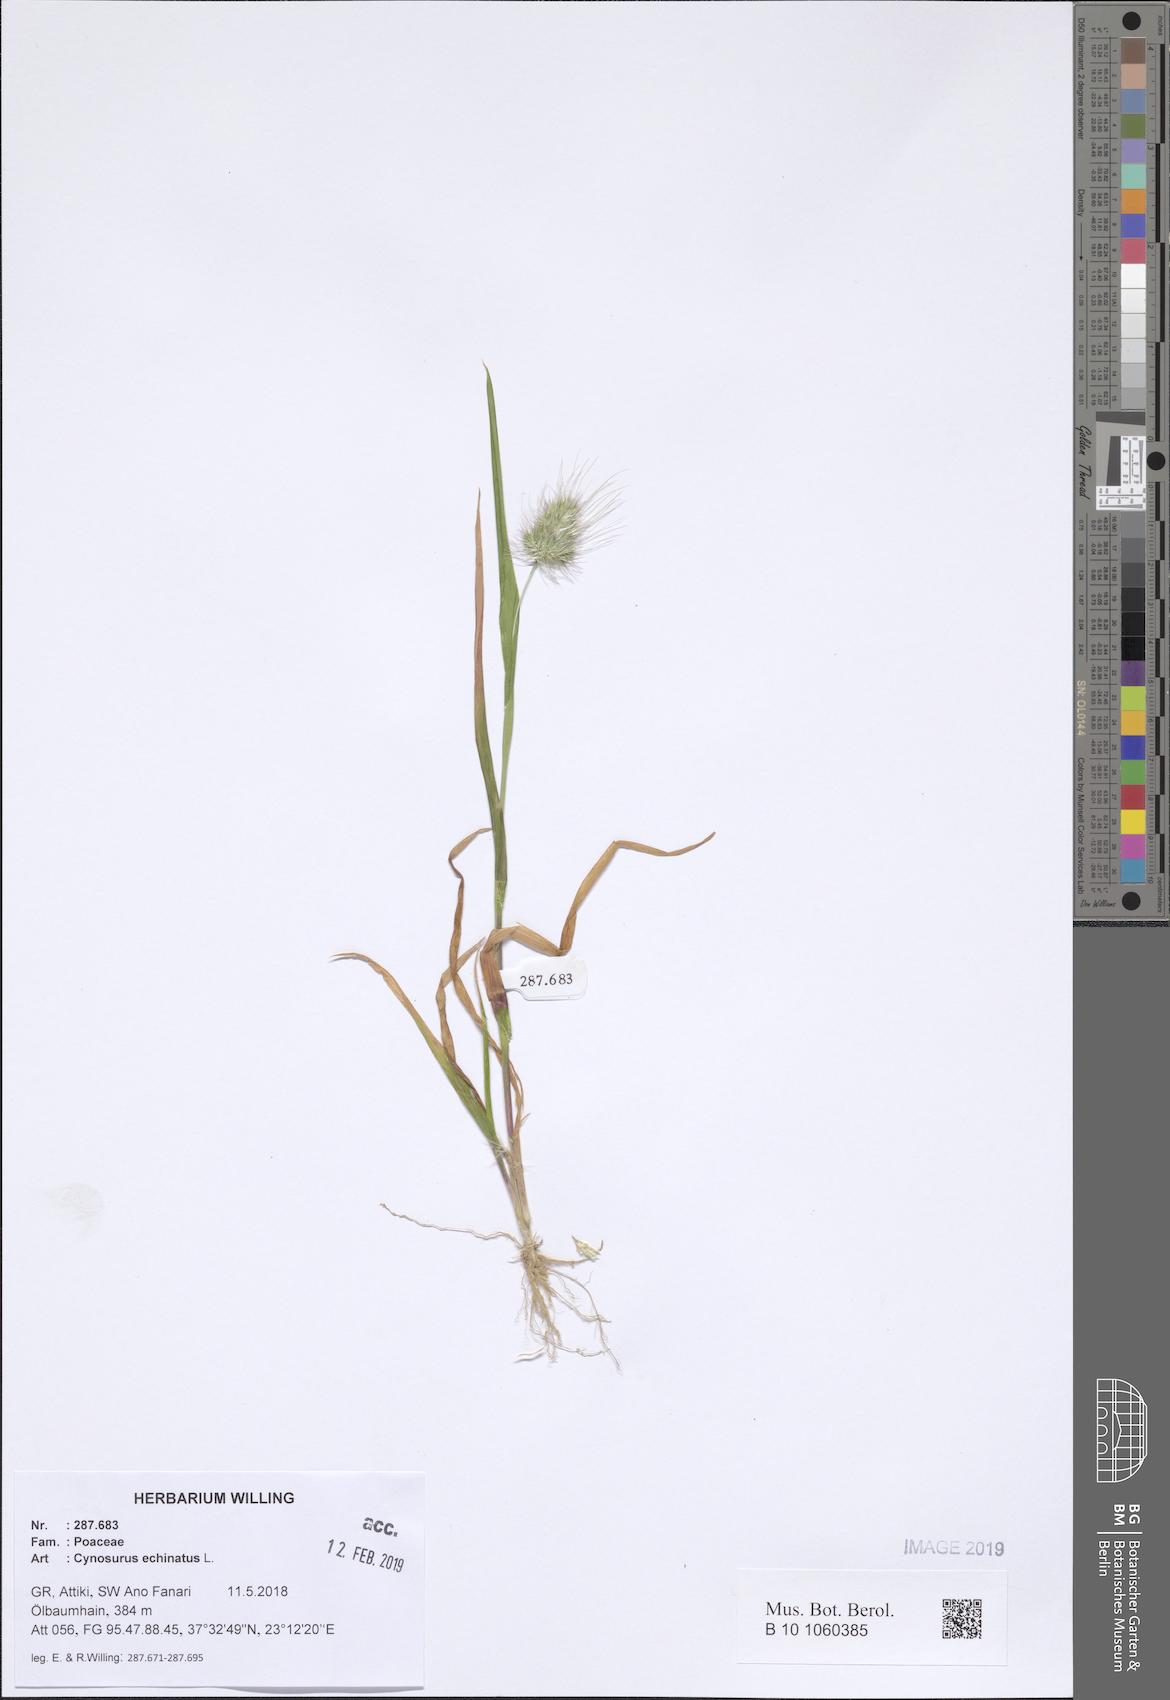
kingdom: Plantae
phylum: Tracheophyta
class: Liliopsida
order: Poales
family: Poaceae
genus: Cynosurus
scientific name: Cynosurus echinatus
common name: Rough dog's-tail
